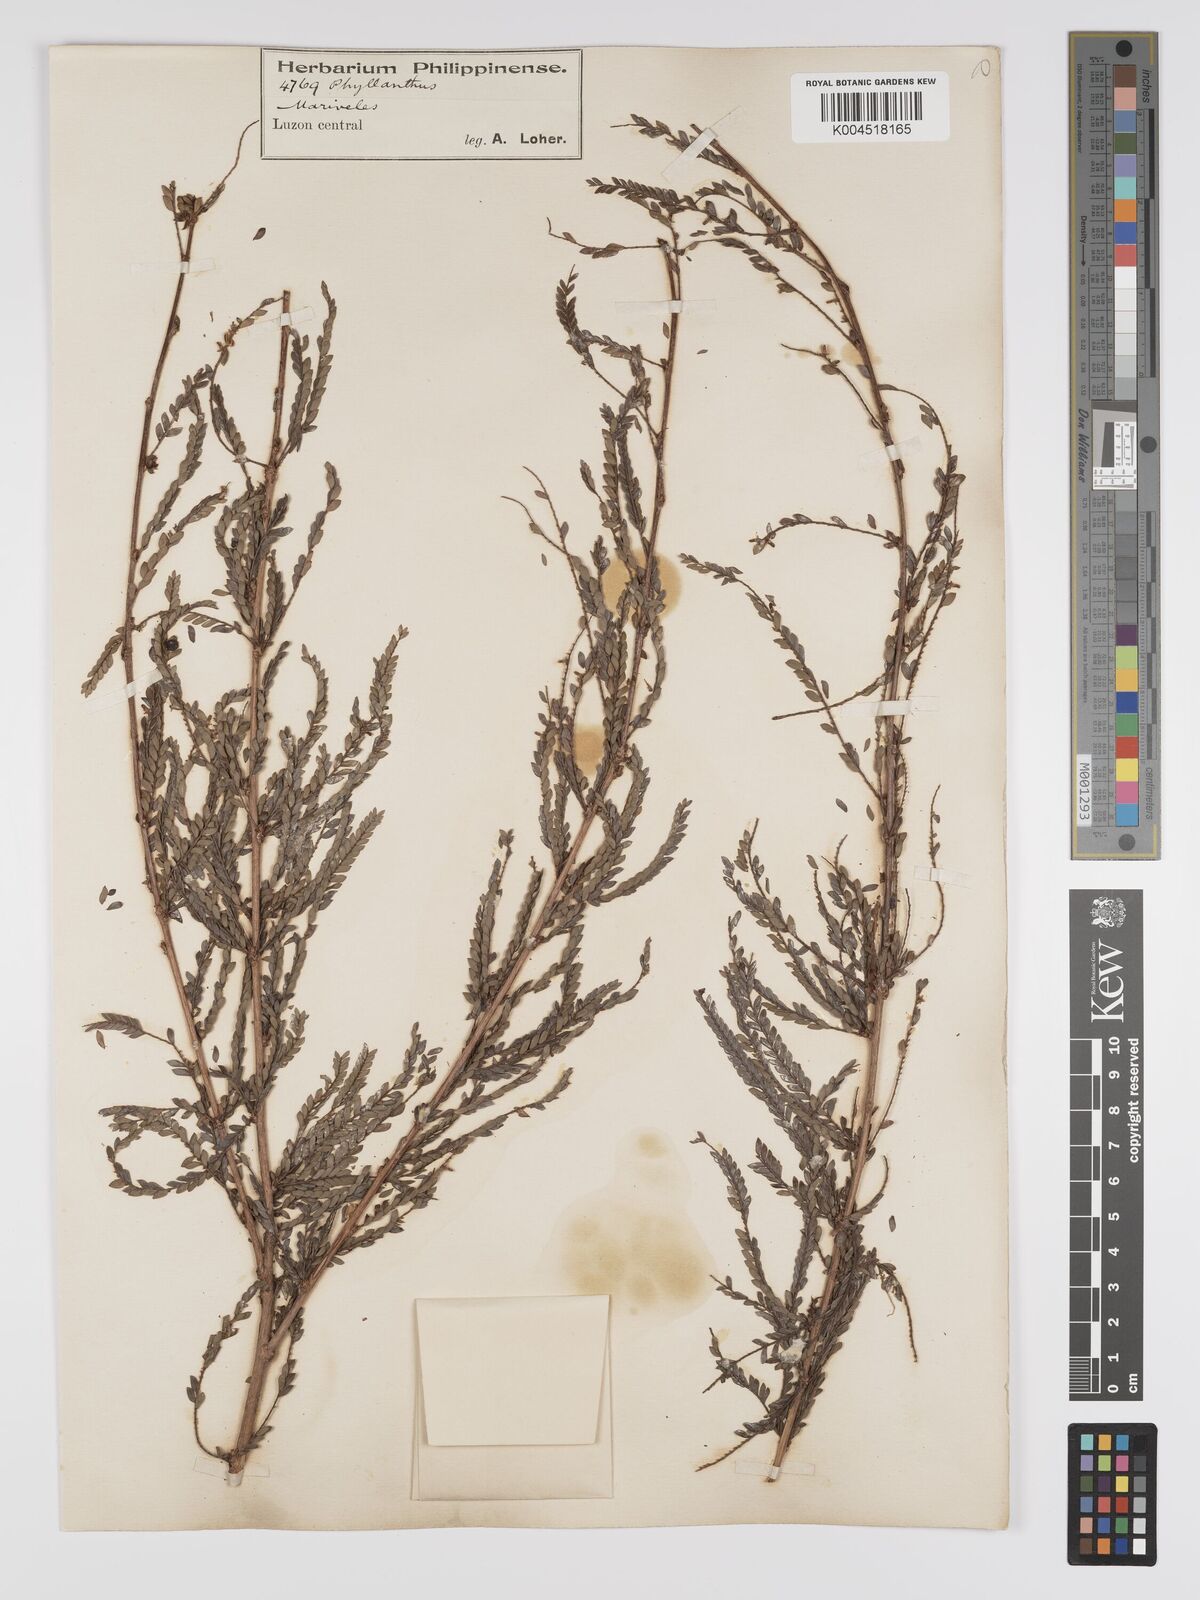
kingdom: Plantae
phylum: Tracheophyta
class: Magnoliopsida
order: Malpighiales
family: Phyllanthaceae
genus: Phyllanthus
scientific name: Phyllanthus curranii
